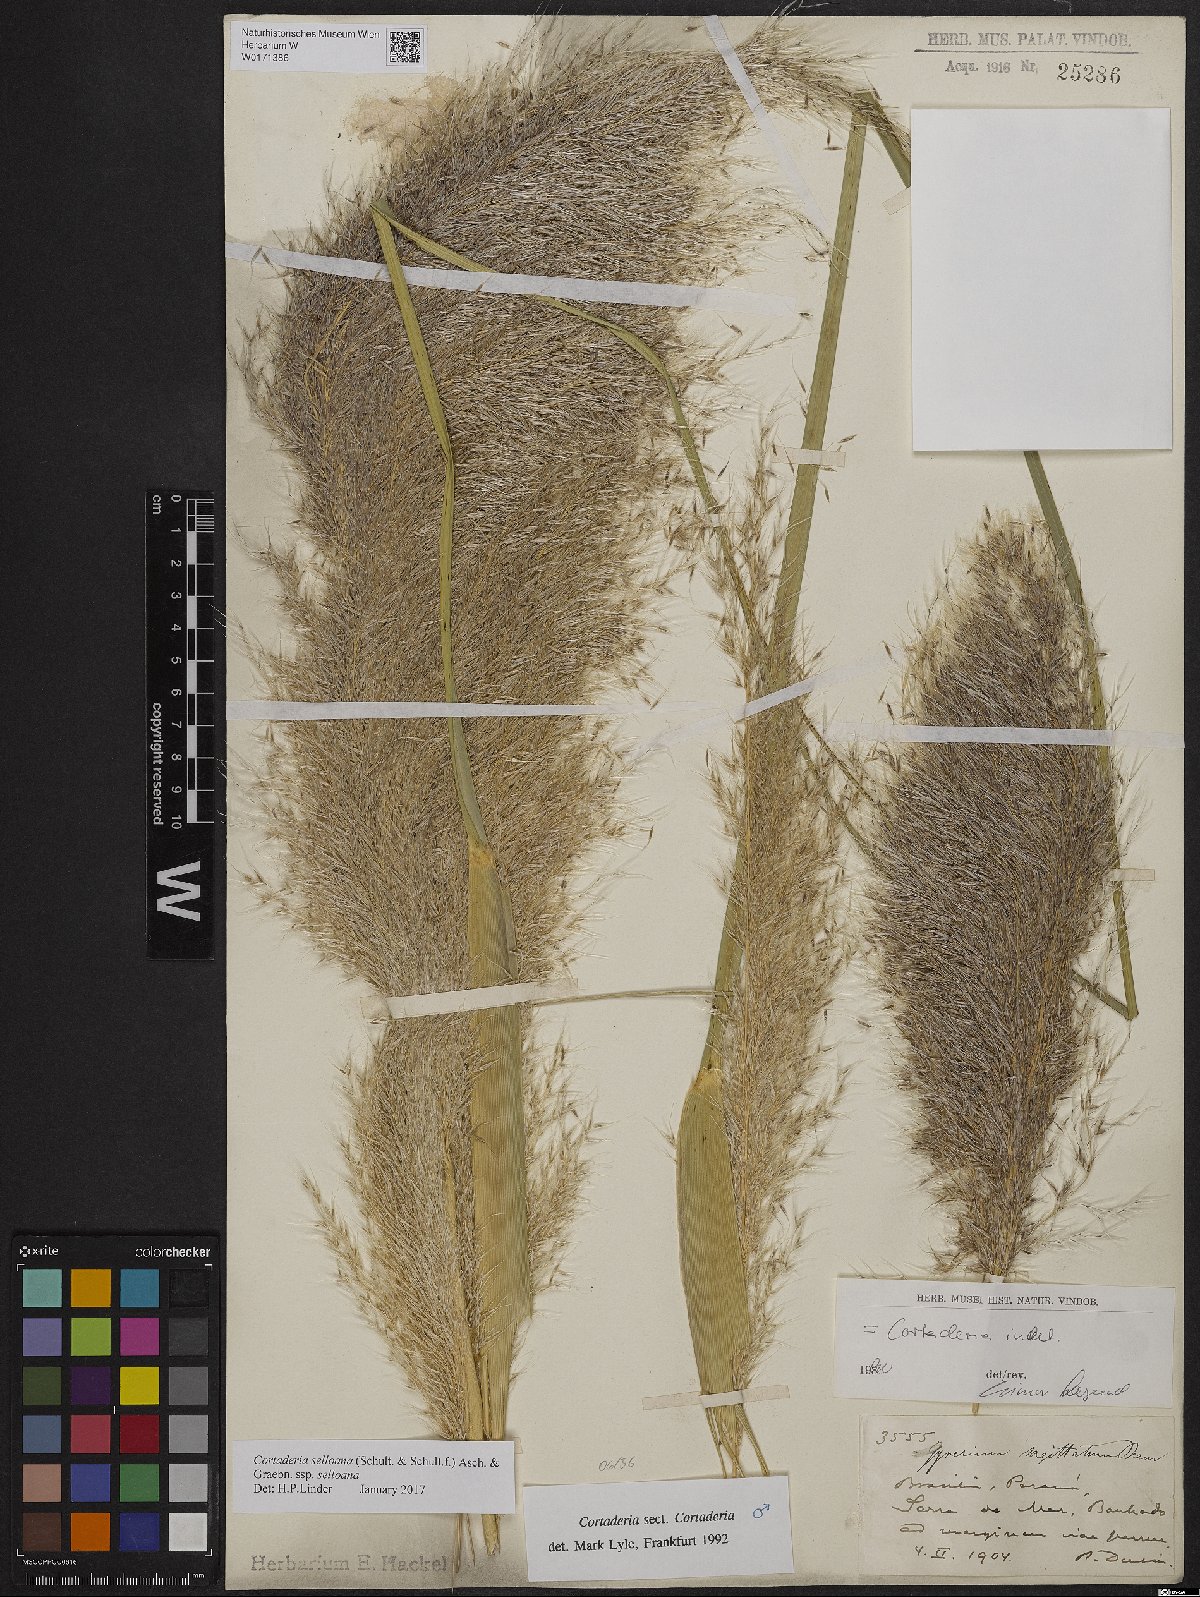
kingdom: Plantae
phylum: Tracheophyta
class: Liliopsida
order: Poales
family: Poaceae
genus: Cortaderia
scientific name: Cortaderia selloana
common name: Uruguayan pampas grass
